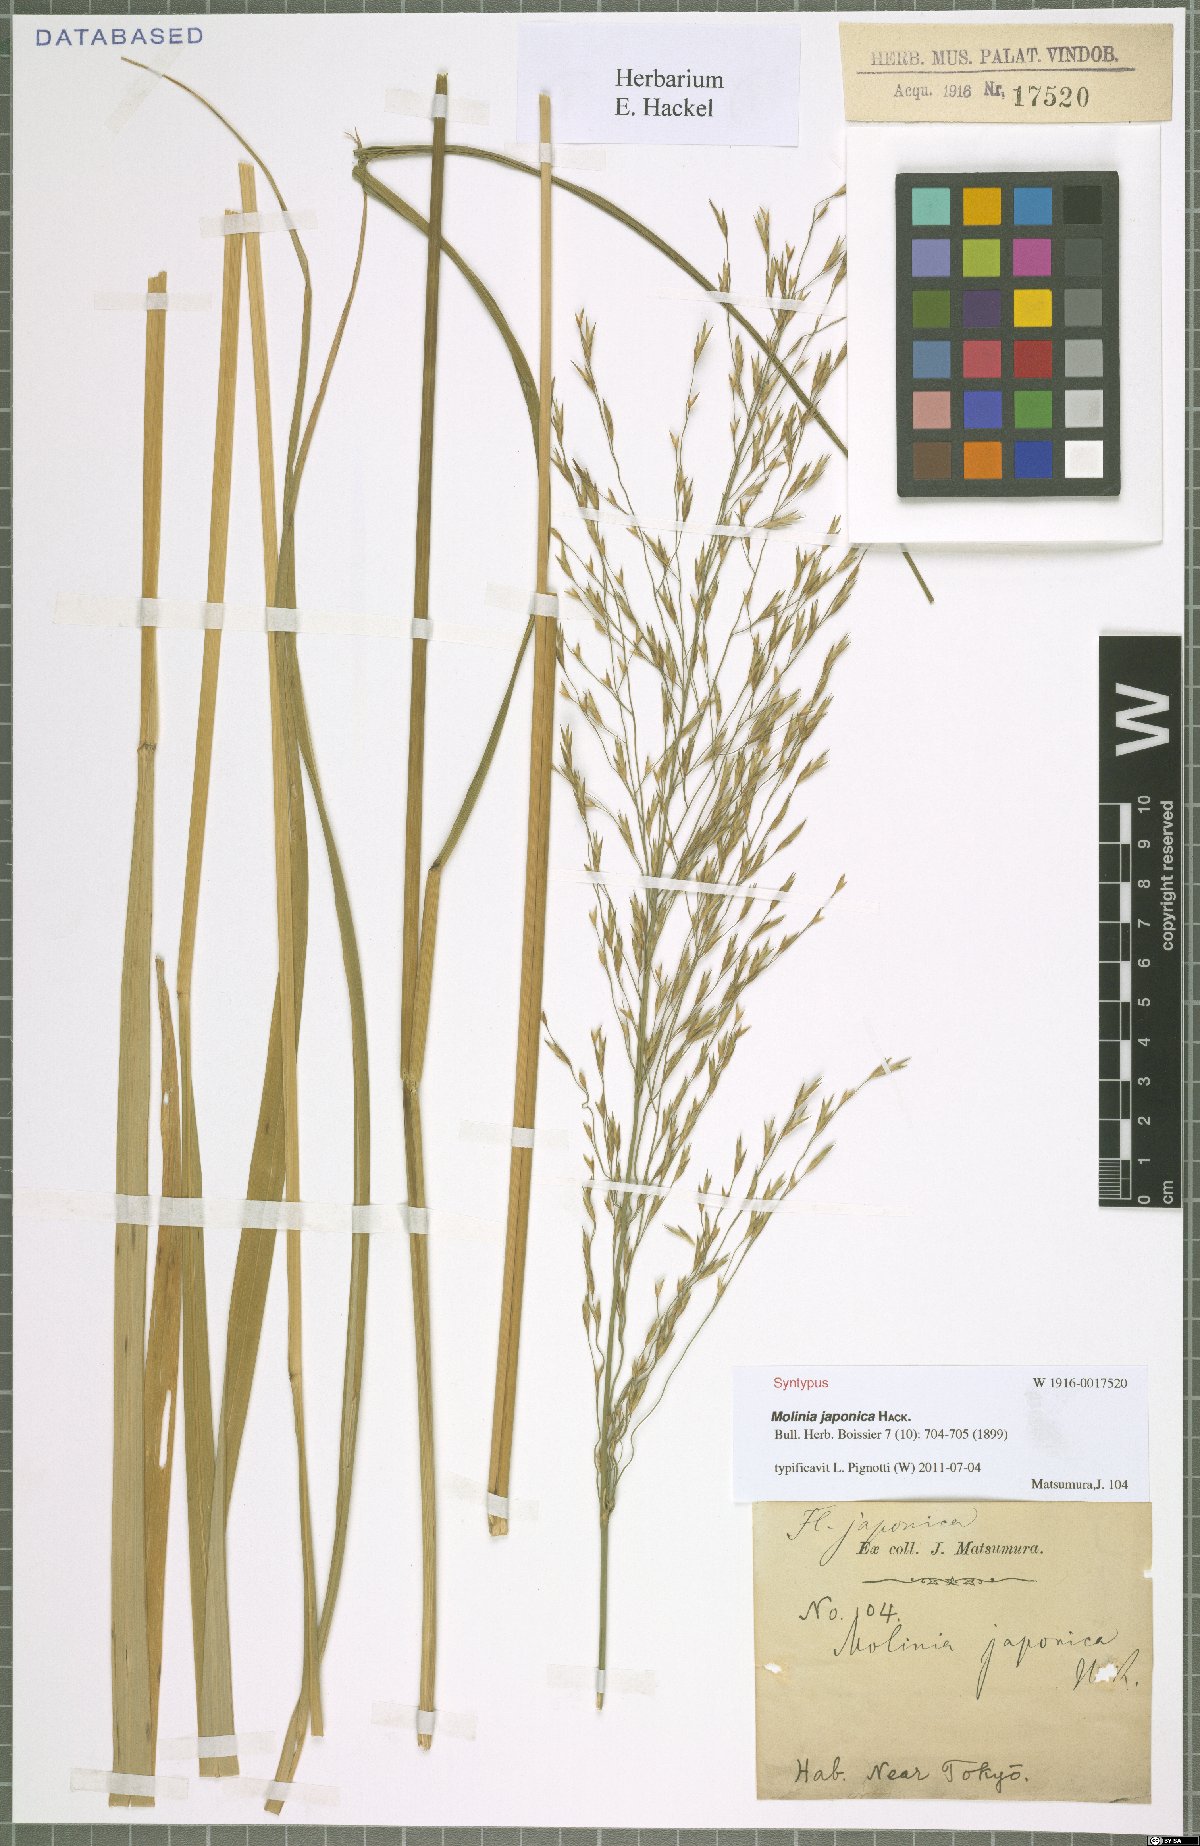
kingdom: Plantae
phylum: Tracheophyta
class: Liliopsida
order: Poales
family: Poaceae
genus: Moliniopsis
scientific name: Moliniopsis japonica
